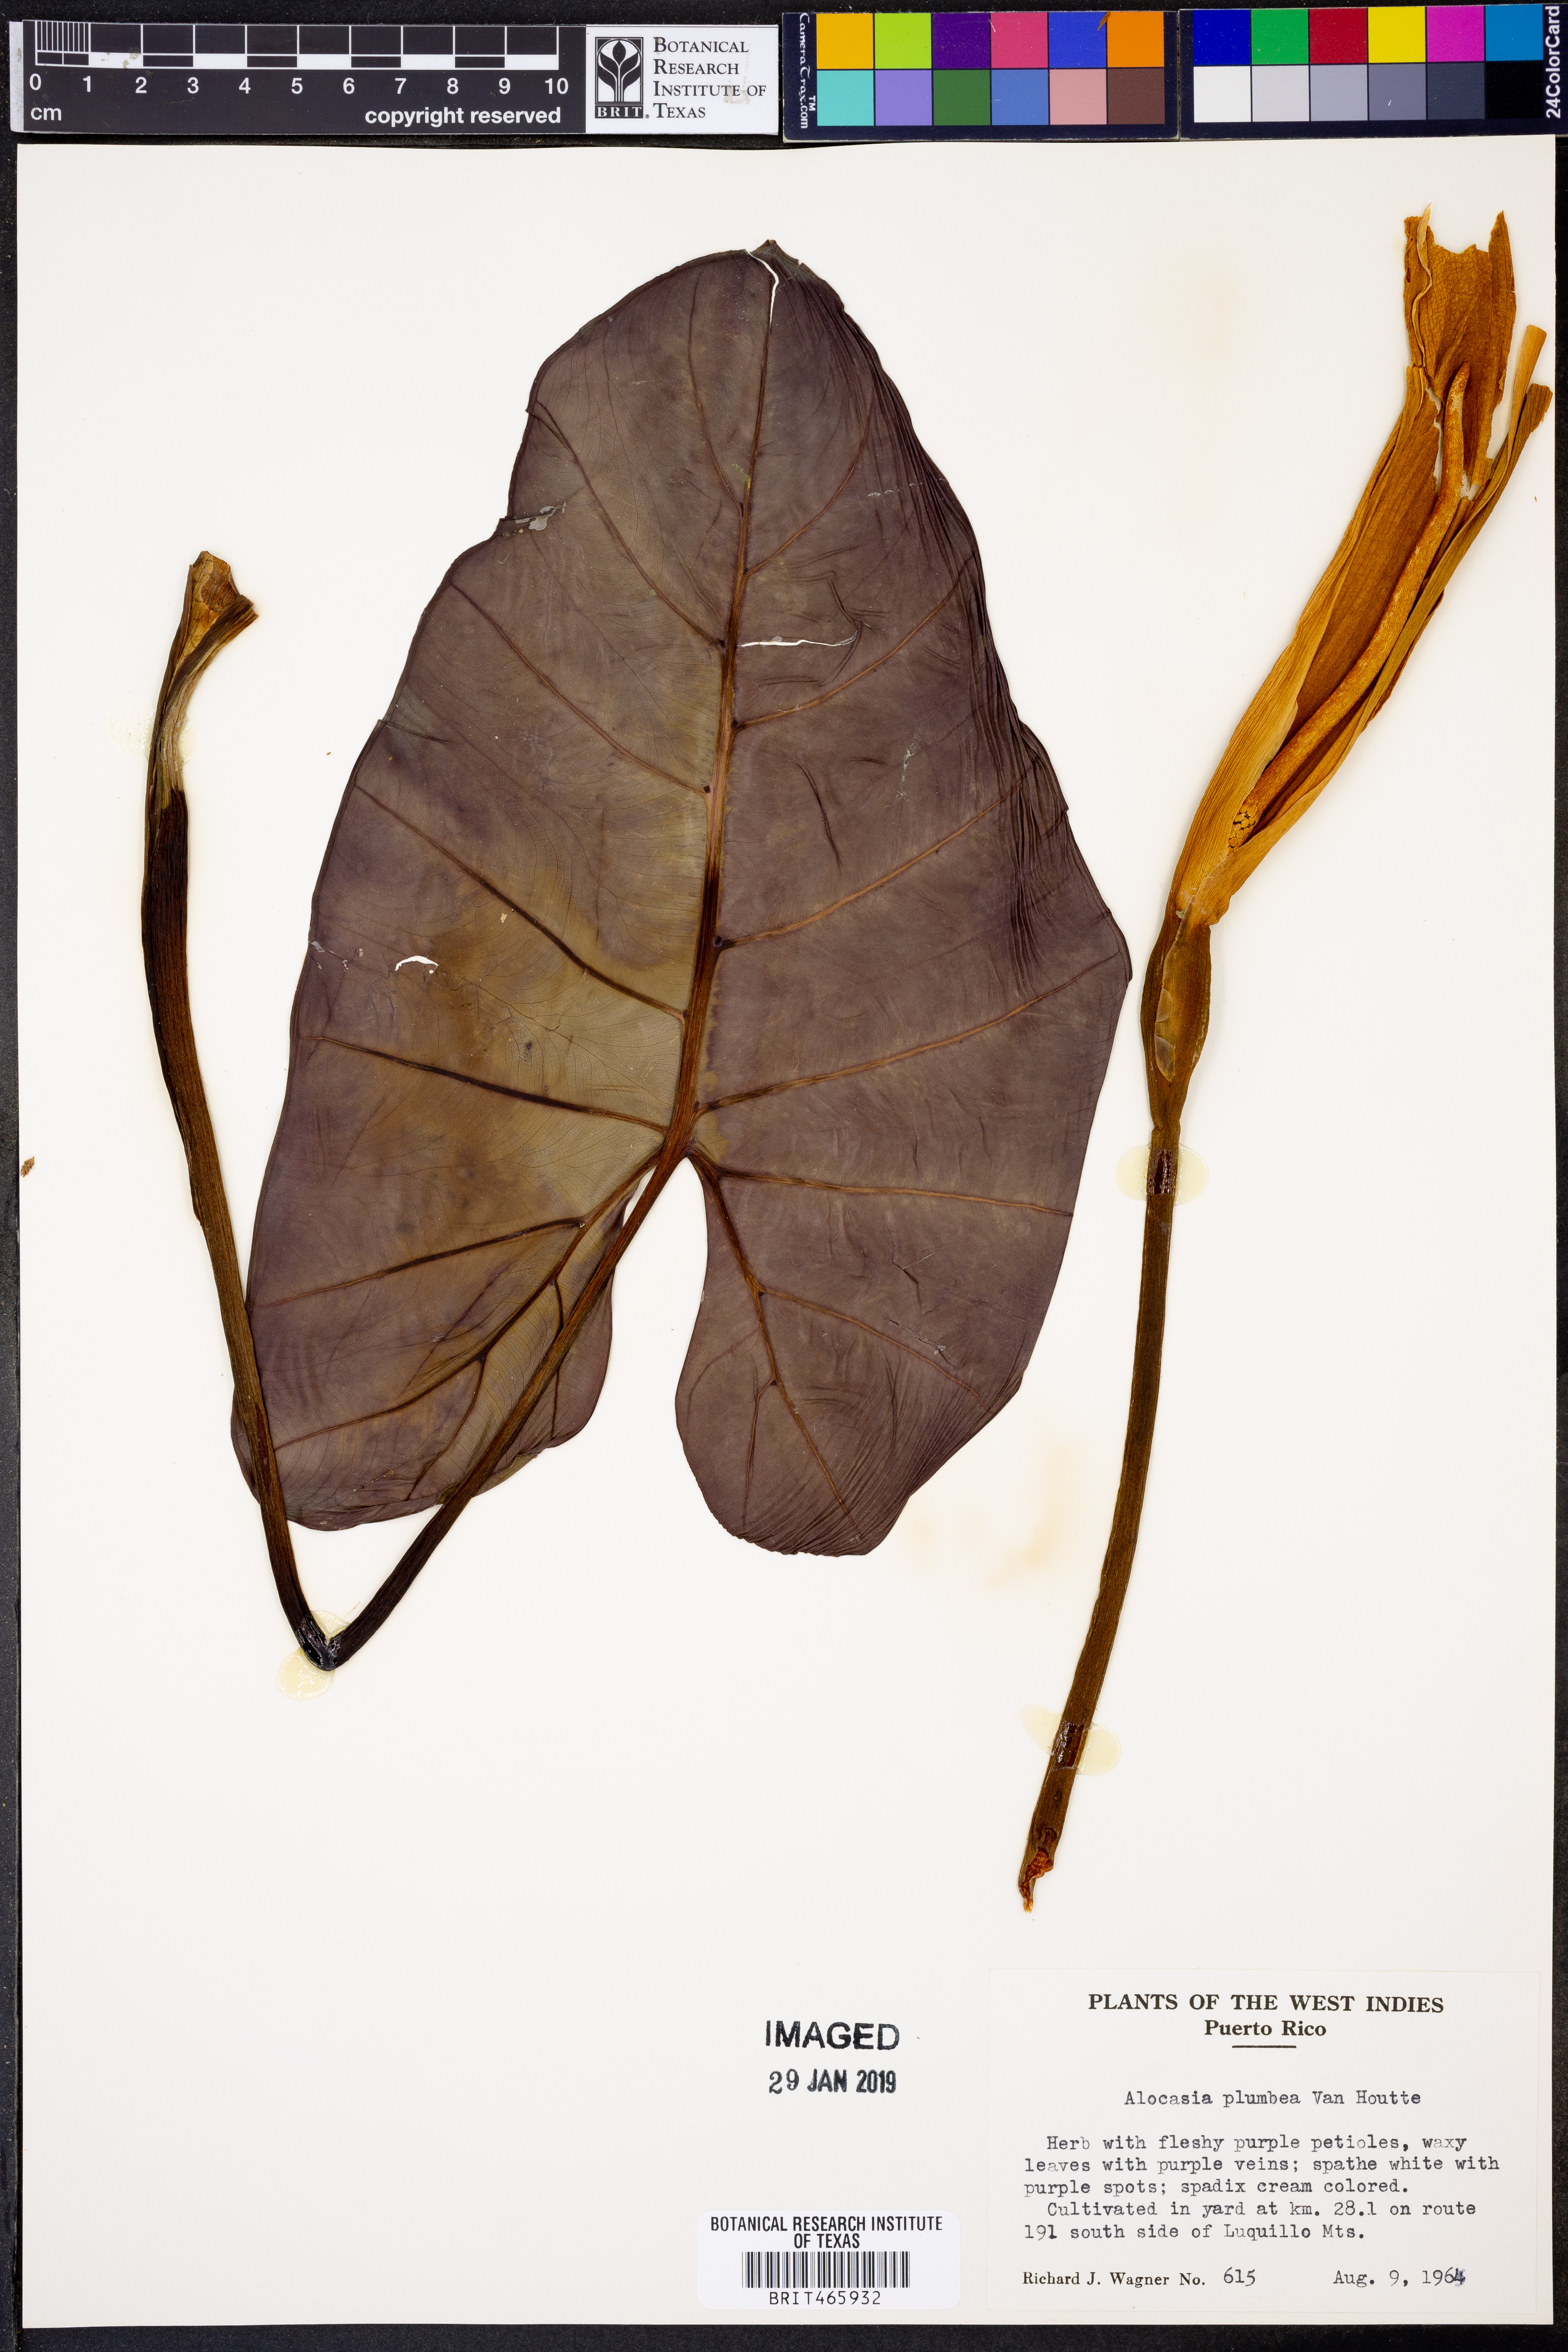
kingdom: Plantae
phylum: Tracheophyta
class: Liliopsida
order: Alismatales
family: Araceae
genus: Alocasia
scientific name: Alocasia macrorrhizos
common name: Giant taro
